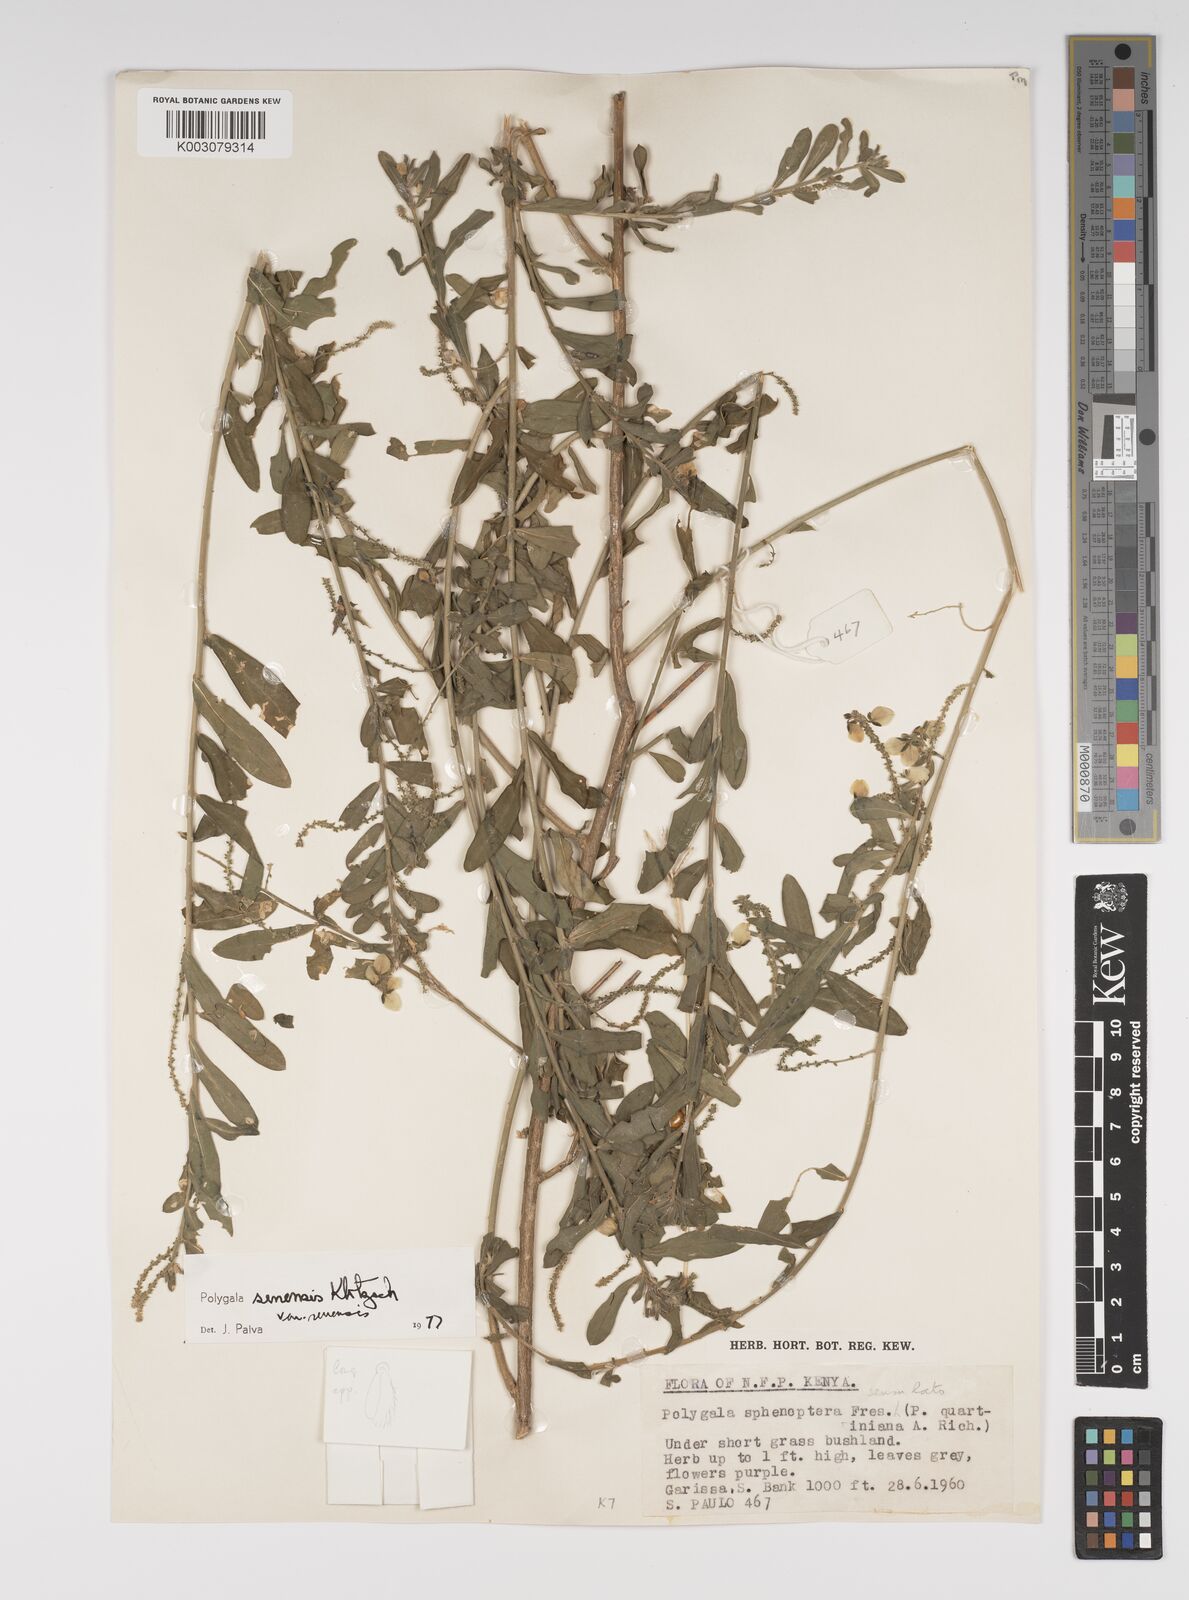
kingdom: Plantae
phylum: Tracheophyta
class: Magnoliopsida
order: Fabales
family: Polygalaceae
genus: Polygala
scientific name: Polygala senensis
